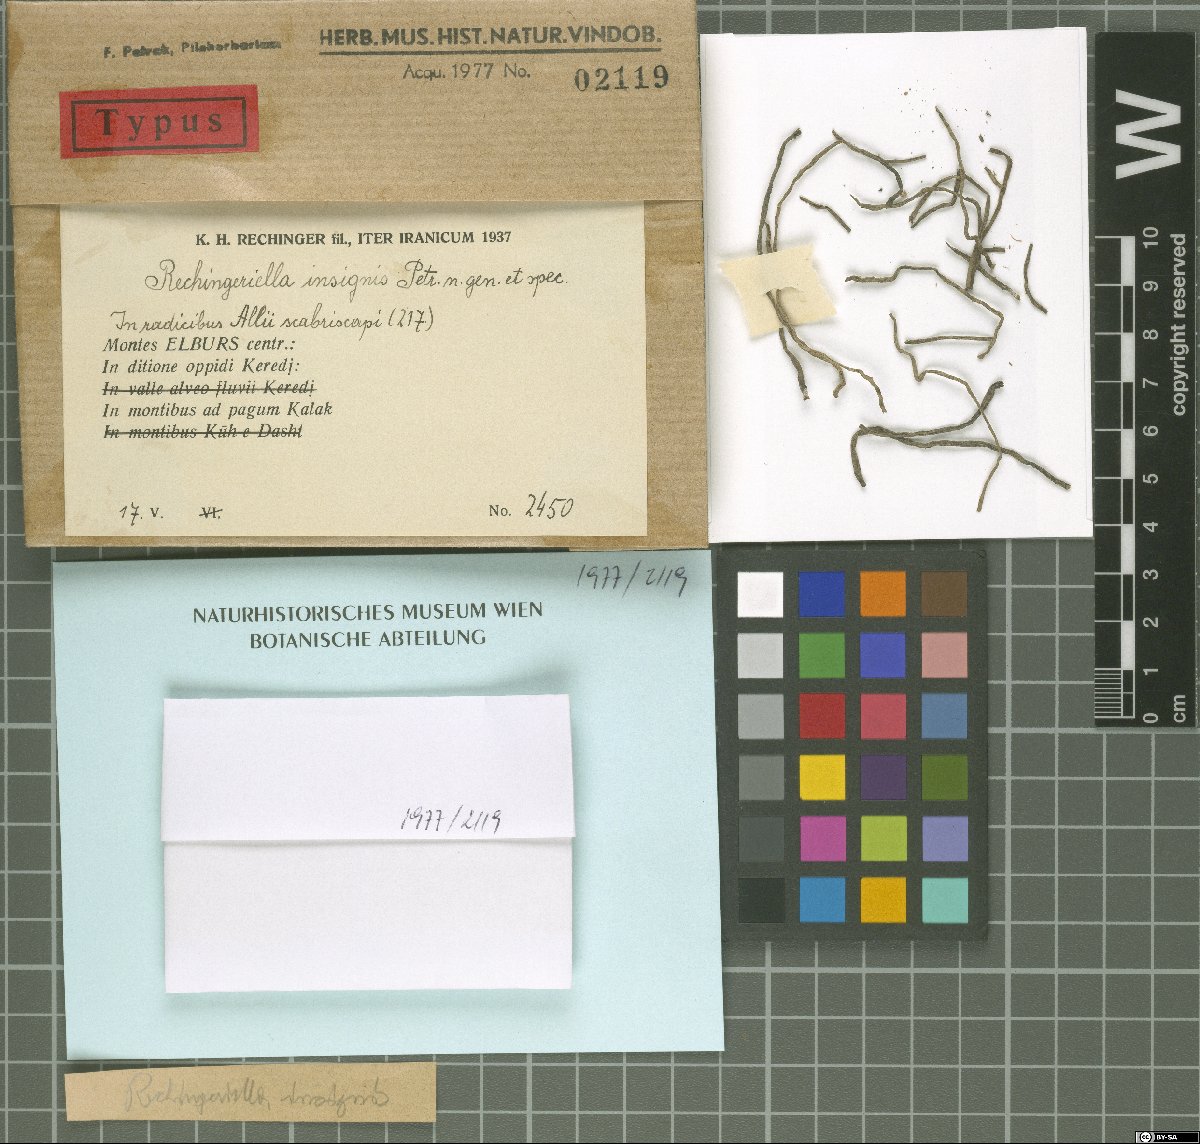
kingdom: Fungi
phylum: Ascomycota
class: Dothideomycetes
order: Pleosporales
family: Zopfiaceae
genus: Rechingeriella
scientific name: Rechingeriella insignis
